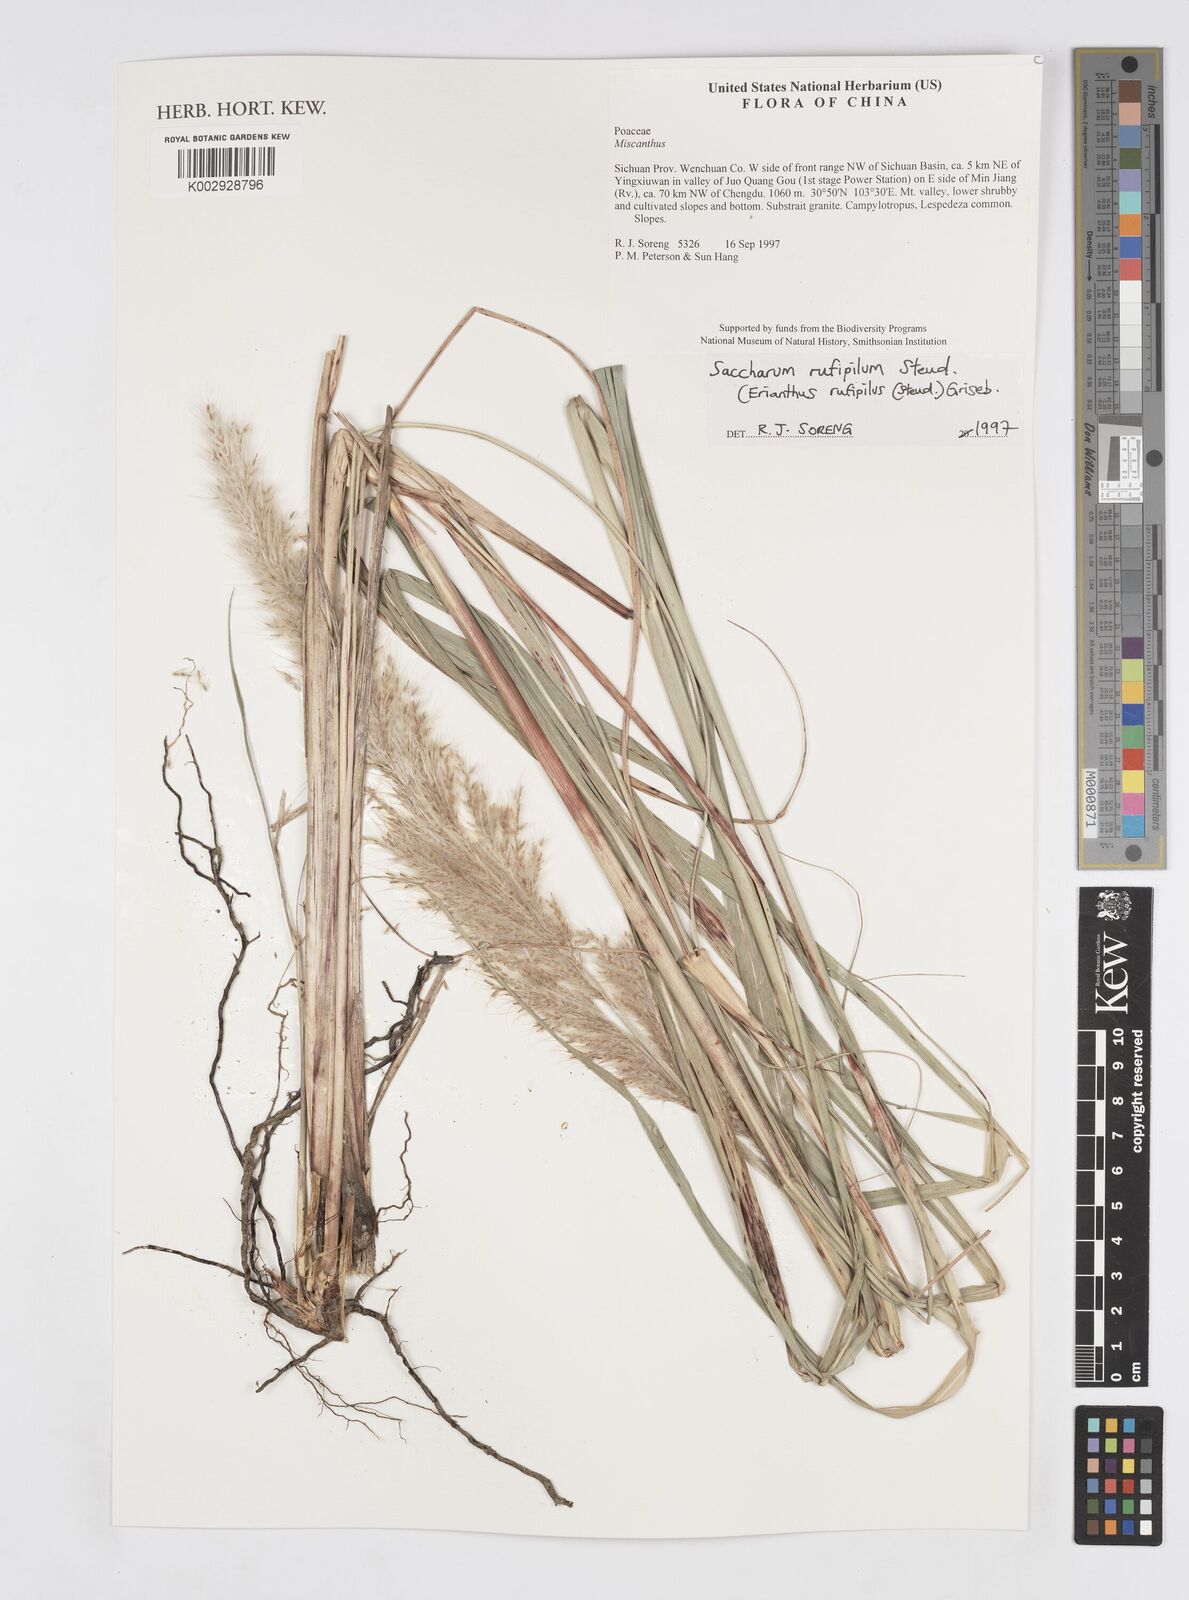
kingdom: Plantae
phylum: Tracheophyta
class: Liliopsida
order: Poales
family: Poaceae
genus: Tripidium
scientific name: Tripidium rufipilum
